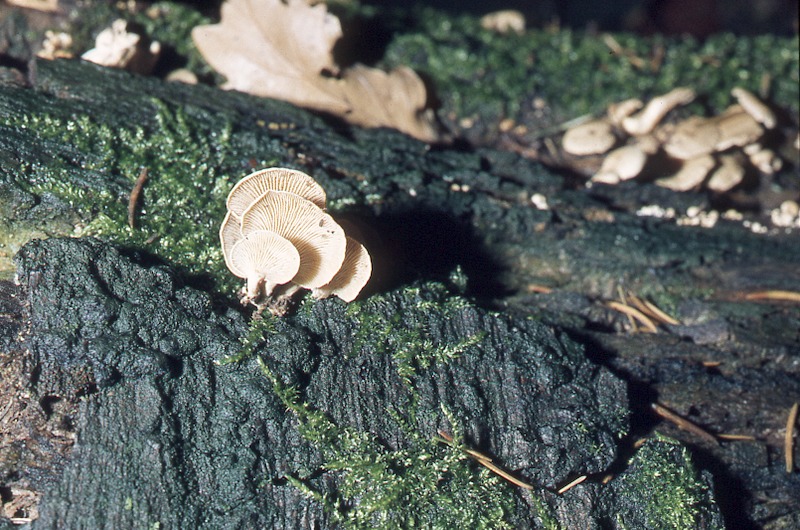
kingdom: Fungi
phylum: Basidiomycota
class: Agaricomycetes
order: Agaricales
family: Mycenaceae
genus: Panellus
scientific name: Panellus stipticus
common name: Bitter oysterling
